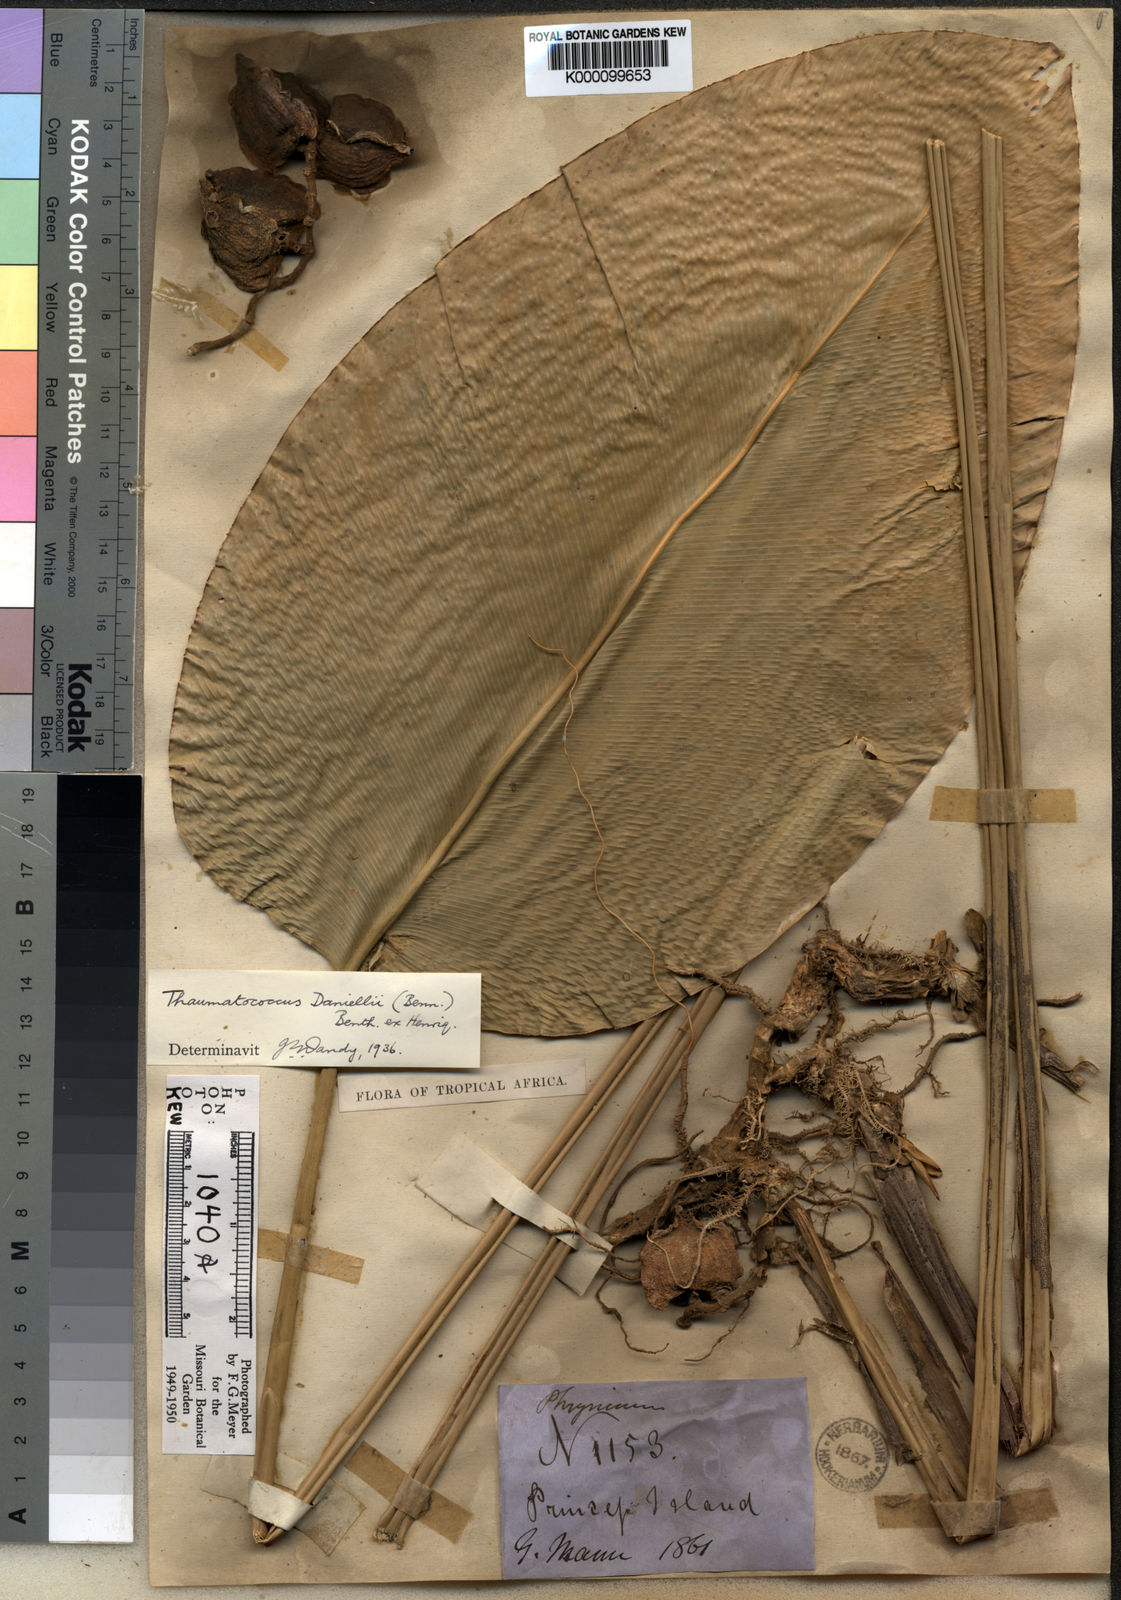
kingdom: Plantae
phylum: Tracheophyta
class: Liliopsida
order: Zingiberales
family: Marantaceae
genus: Thaumatococcus
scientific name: Thaumatococcus
